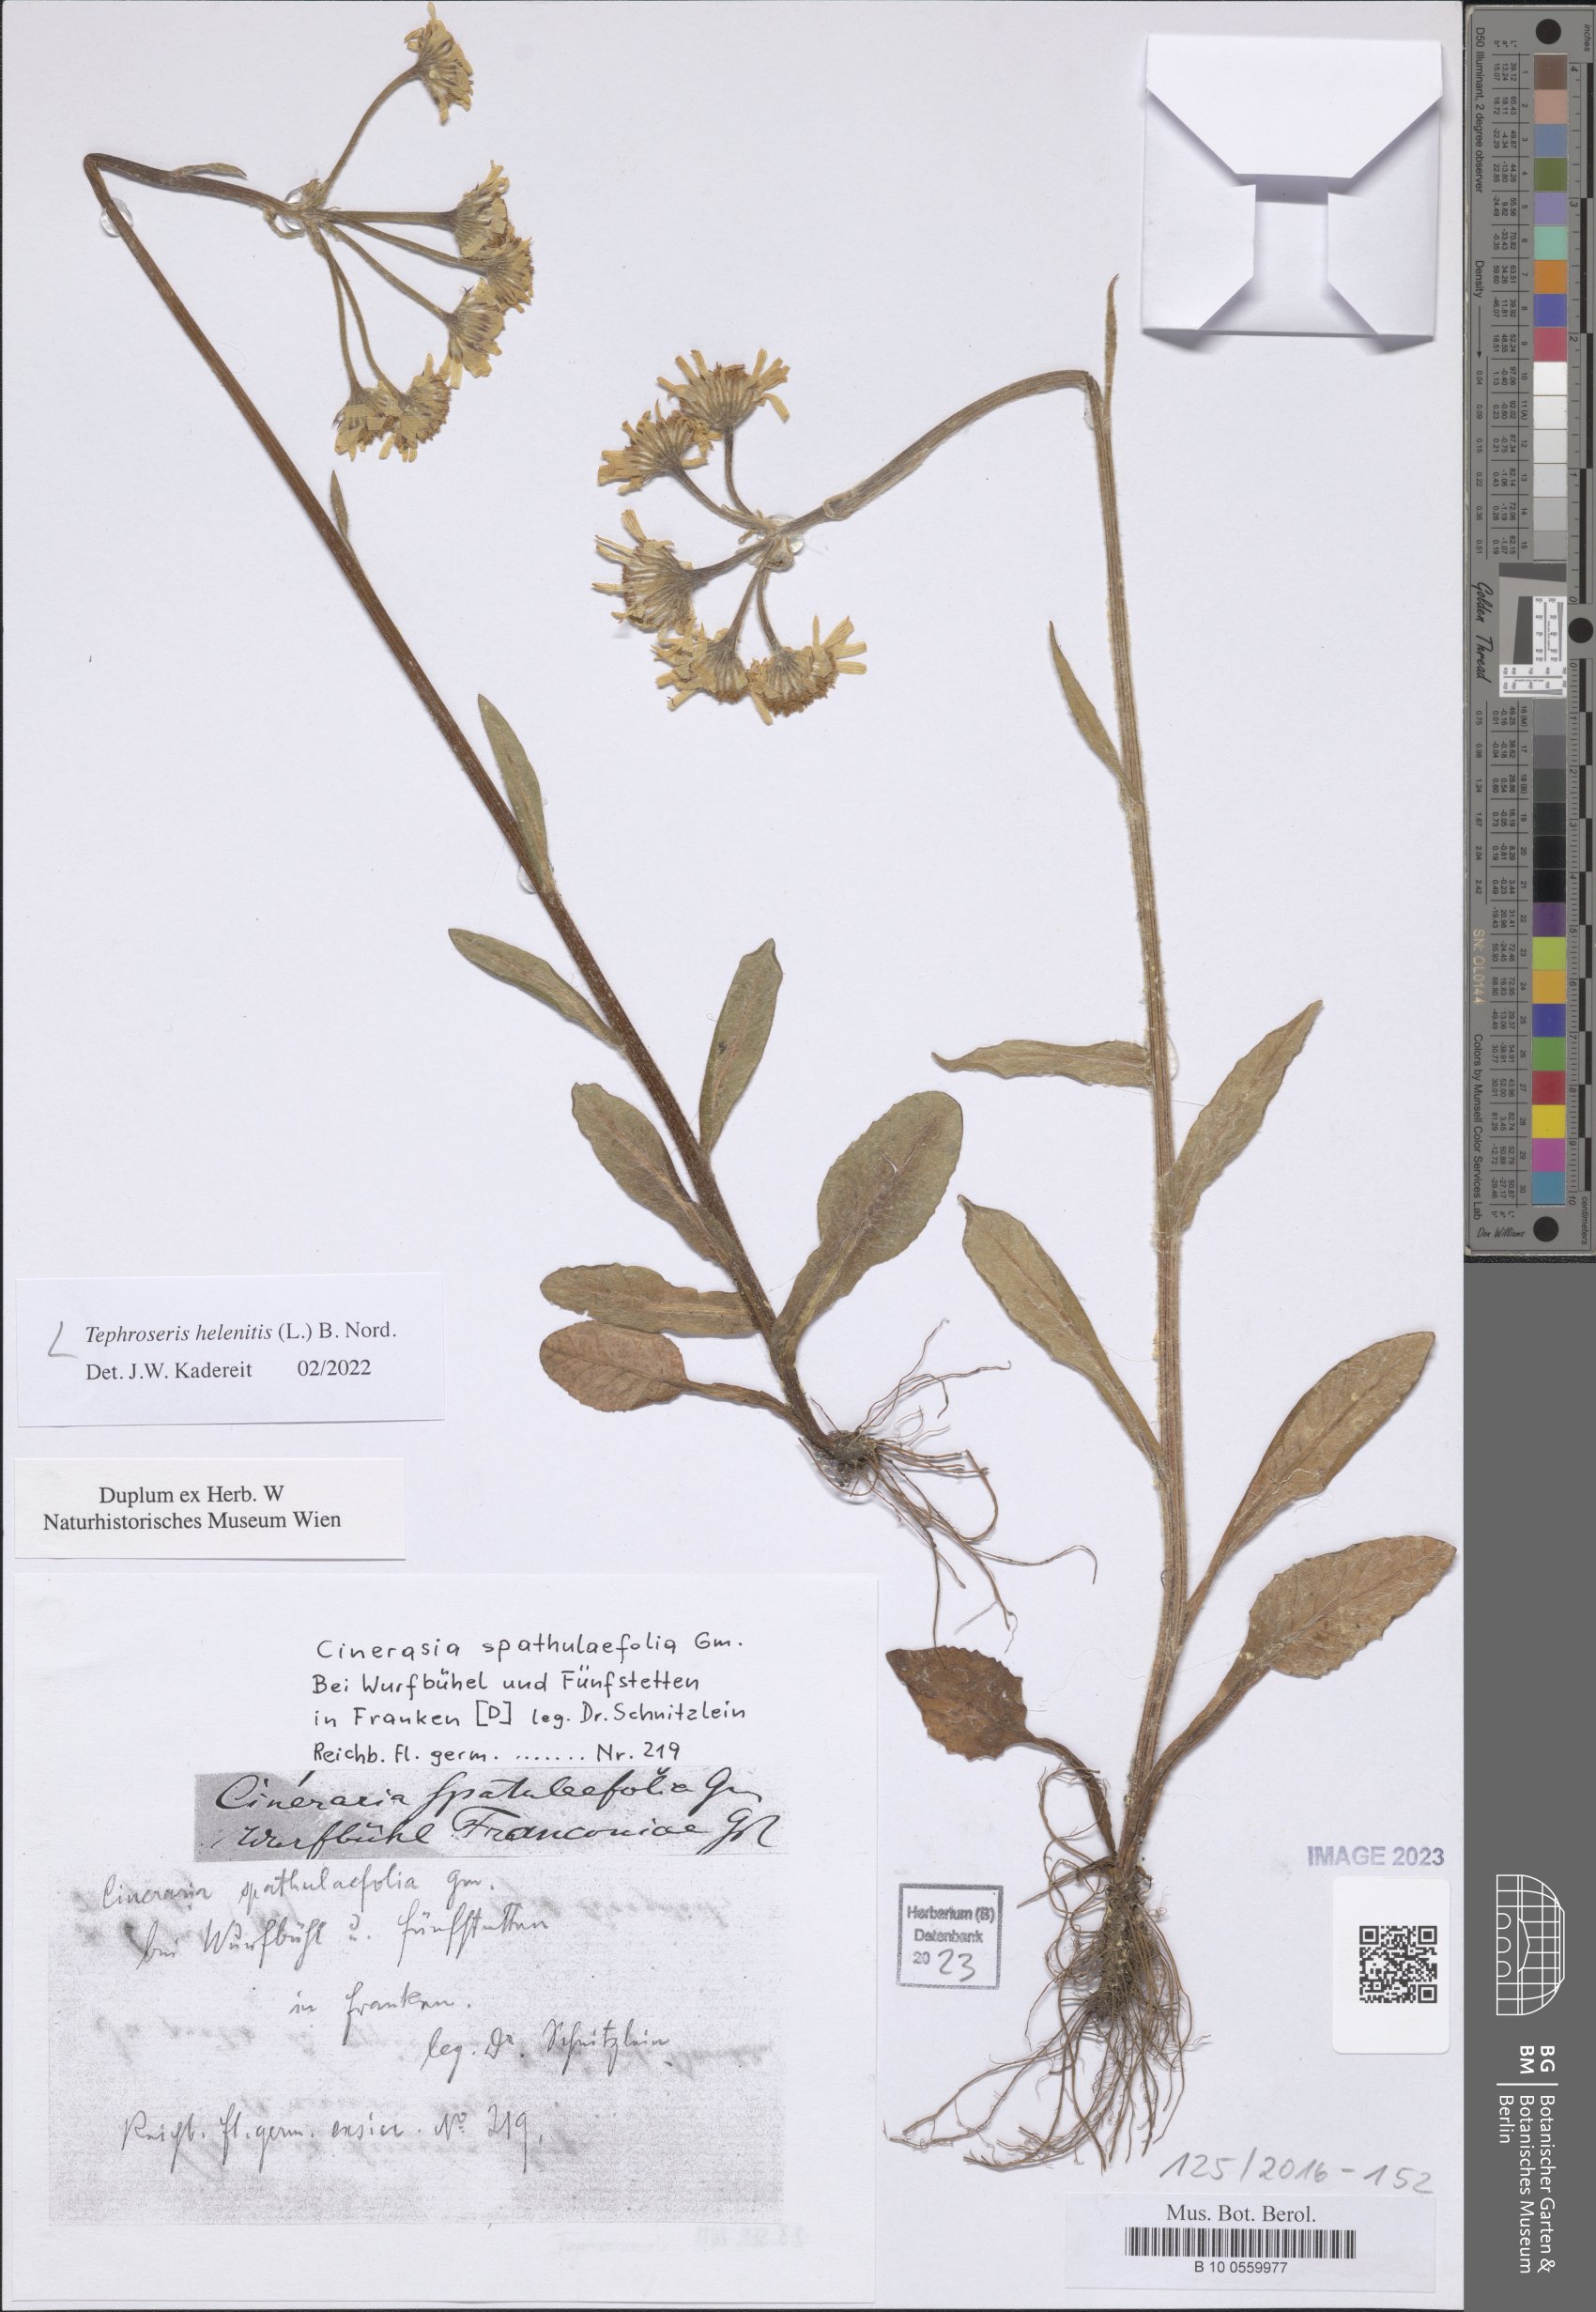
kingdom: Plantae
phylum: Tracheophyta
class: Magnoliopsida
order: Asterales
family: Asteraceae
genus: Tephroseris
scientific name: Tephroseris helenitis
